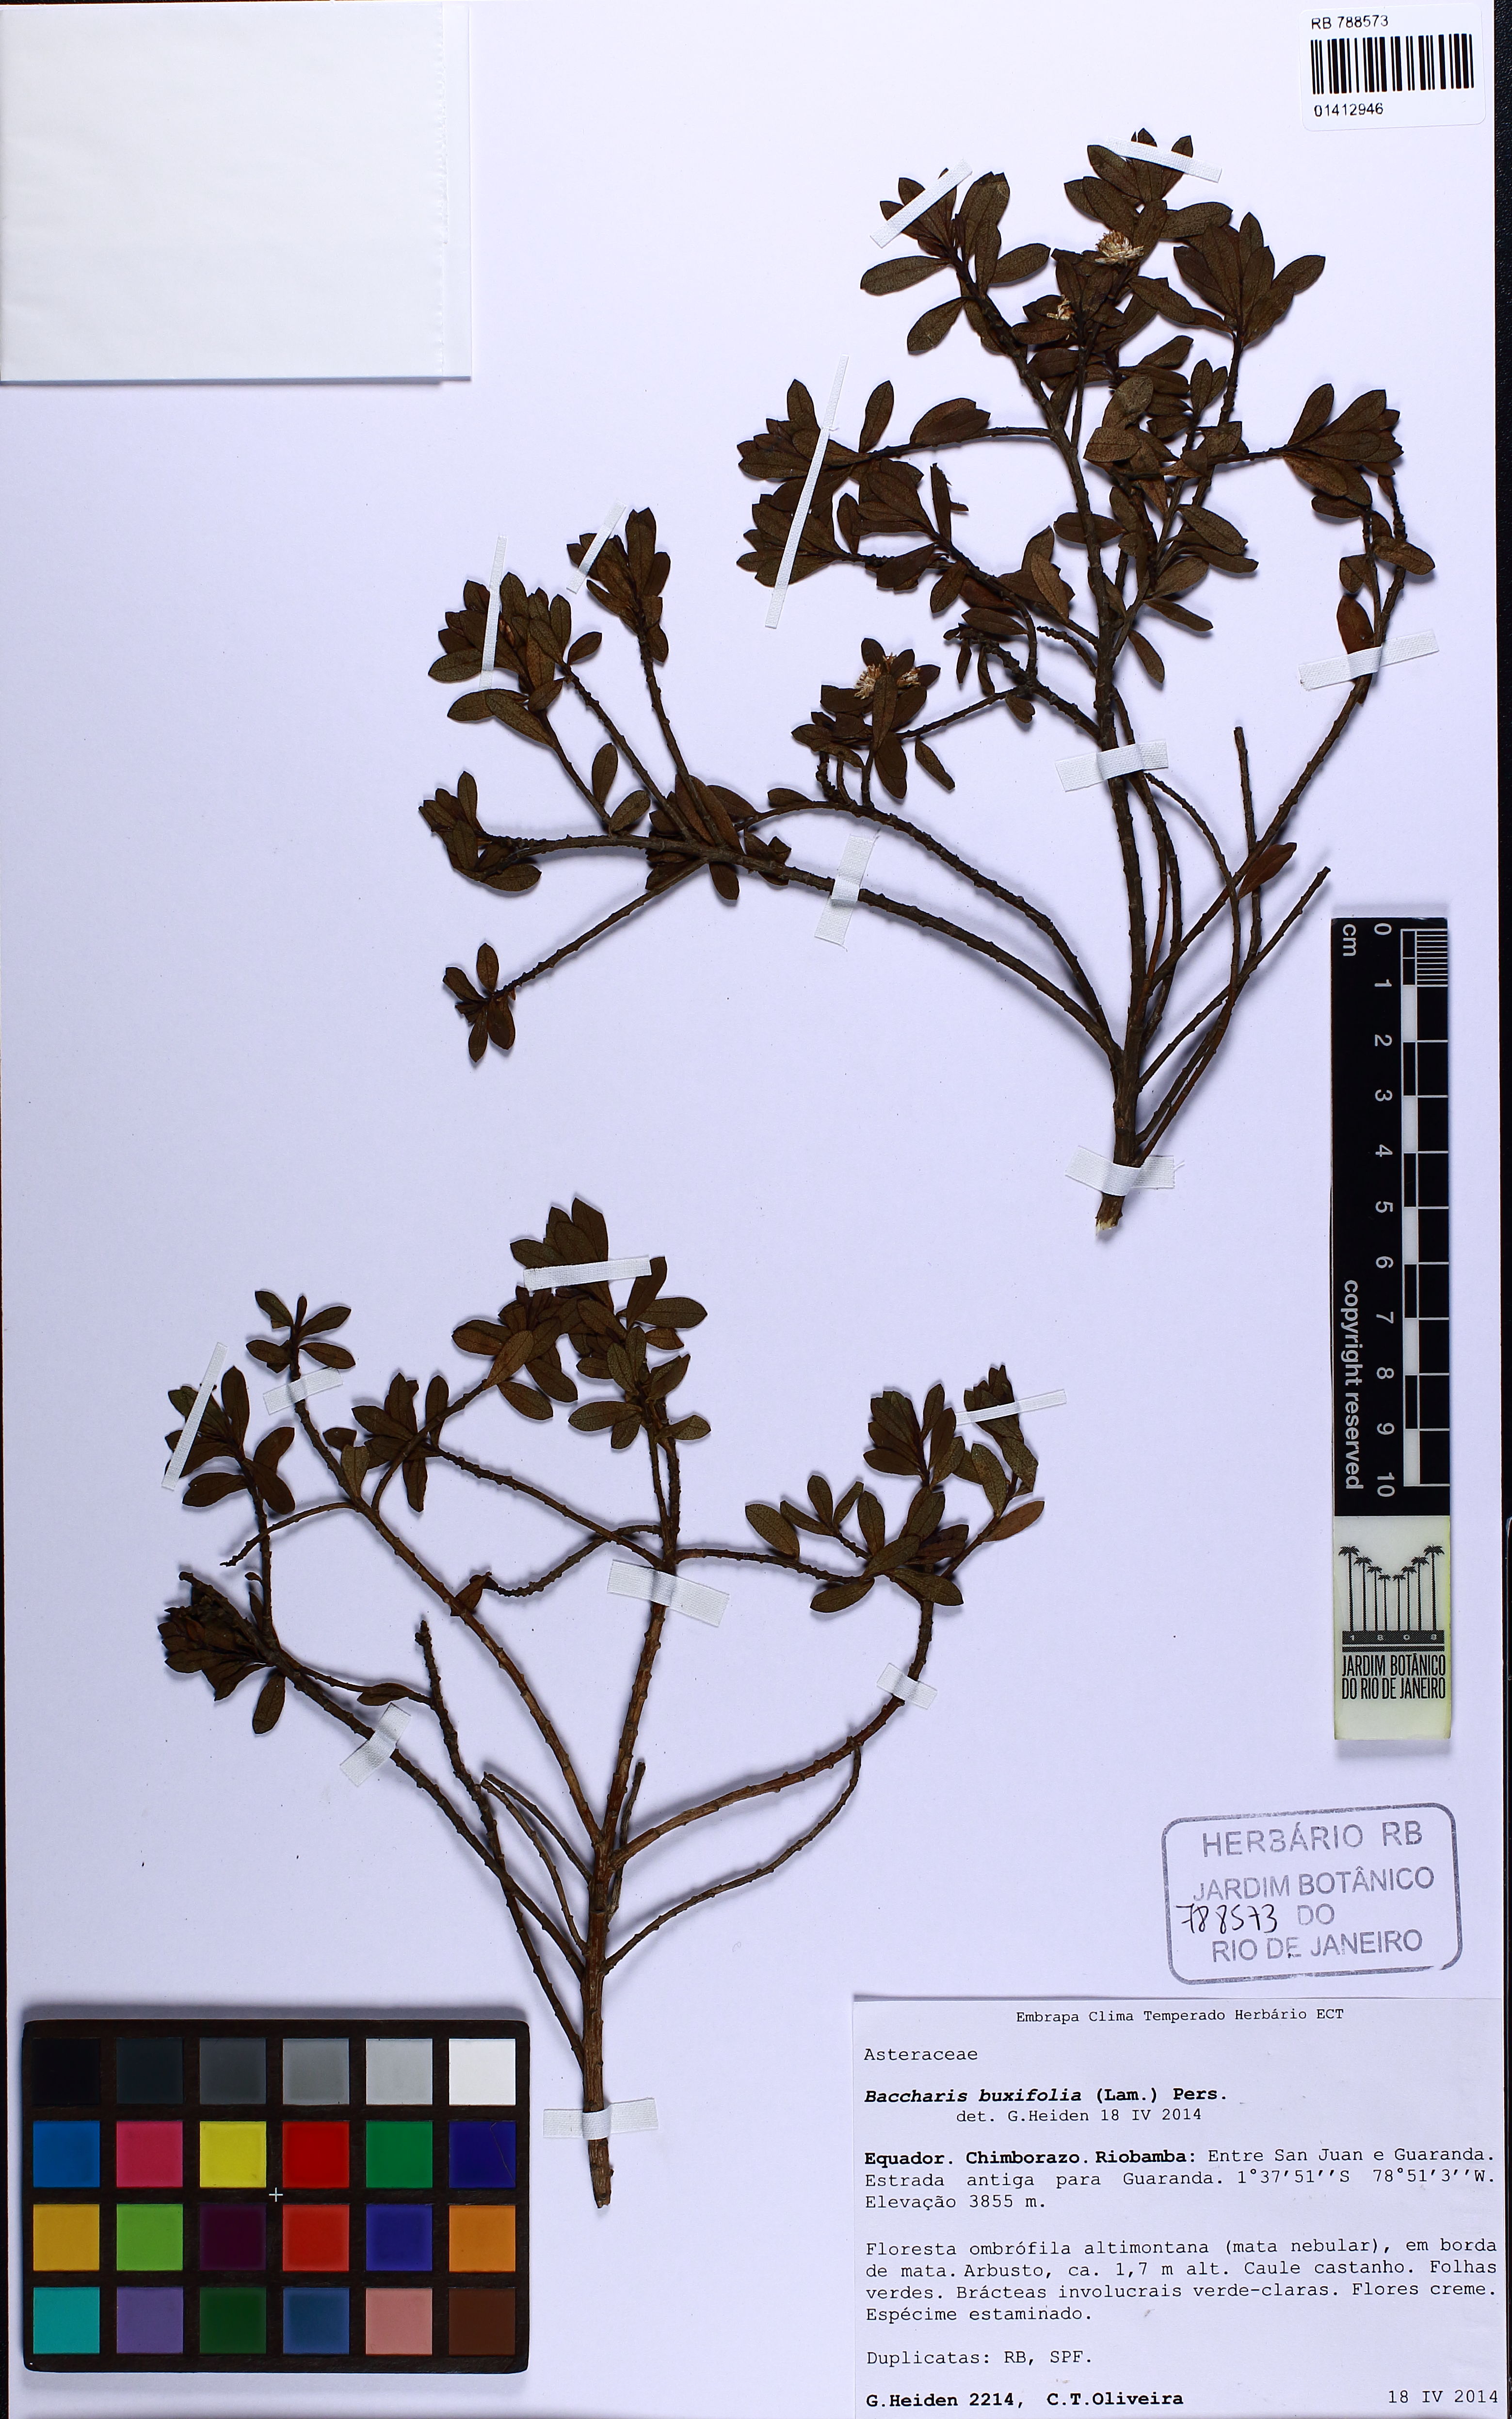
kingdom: Plantae
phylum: Tracheophyta
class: Magnoliopsida
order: Asterales
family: Asteraceae
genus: Baccharis
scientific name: Baccharis buxifolia
